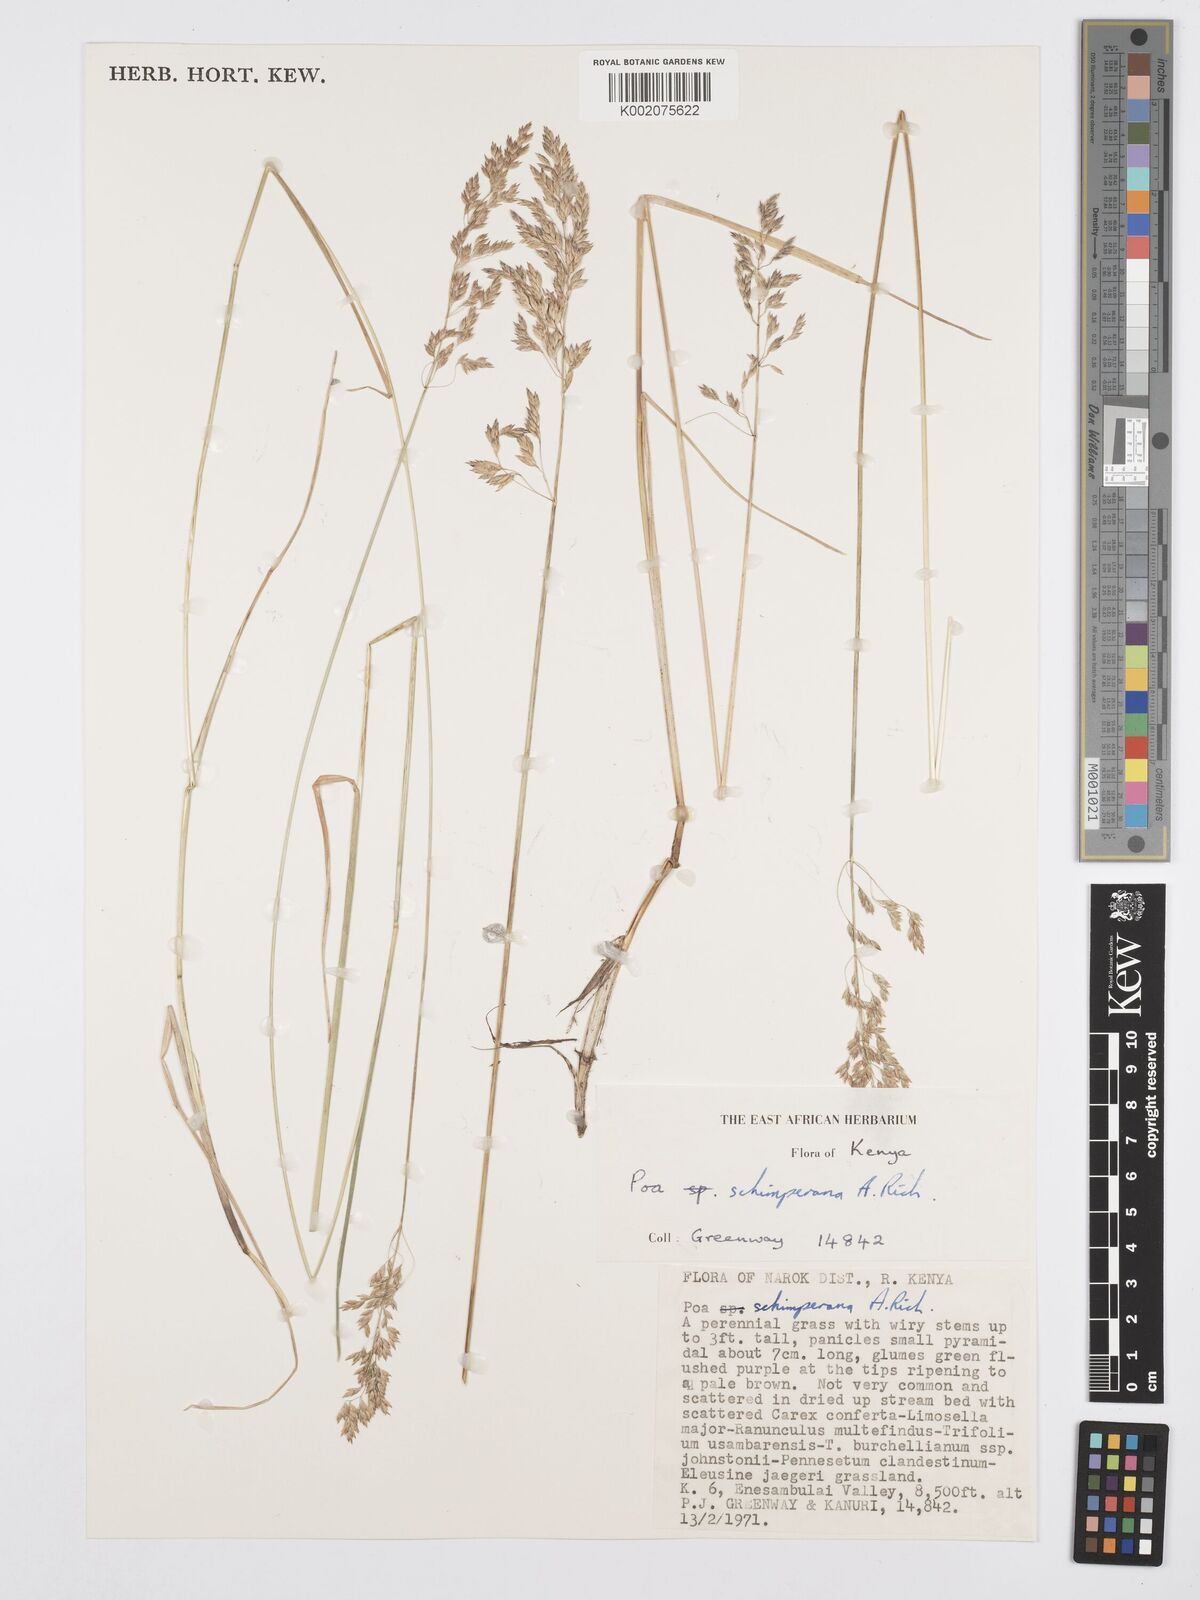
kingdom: Plantae
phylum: Tracheophyta
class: Liliopsida
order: Poales
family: Poaceae
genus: Poa
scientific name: Poa schimperiana
